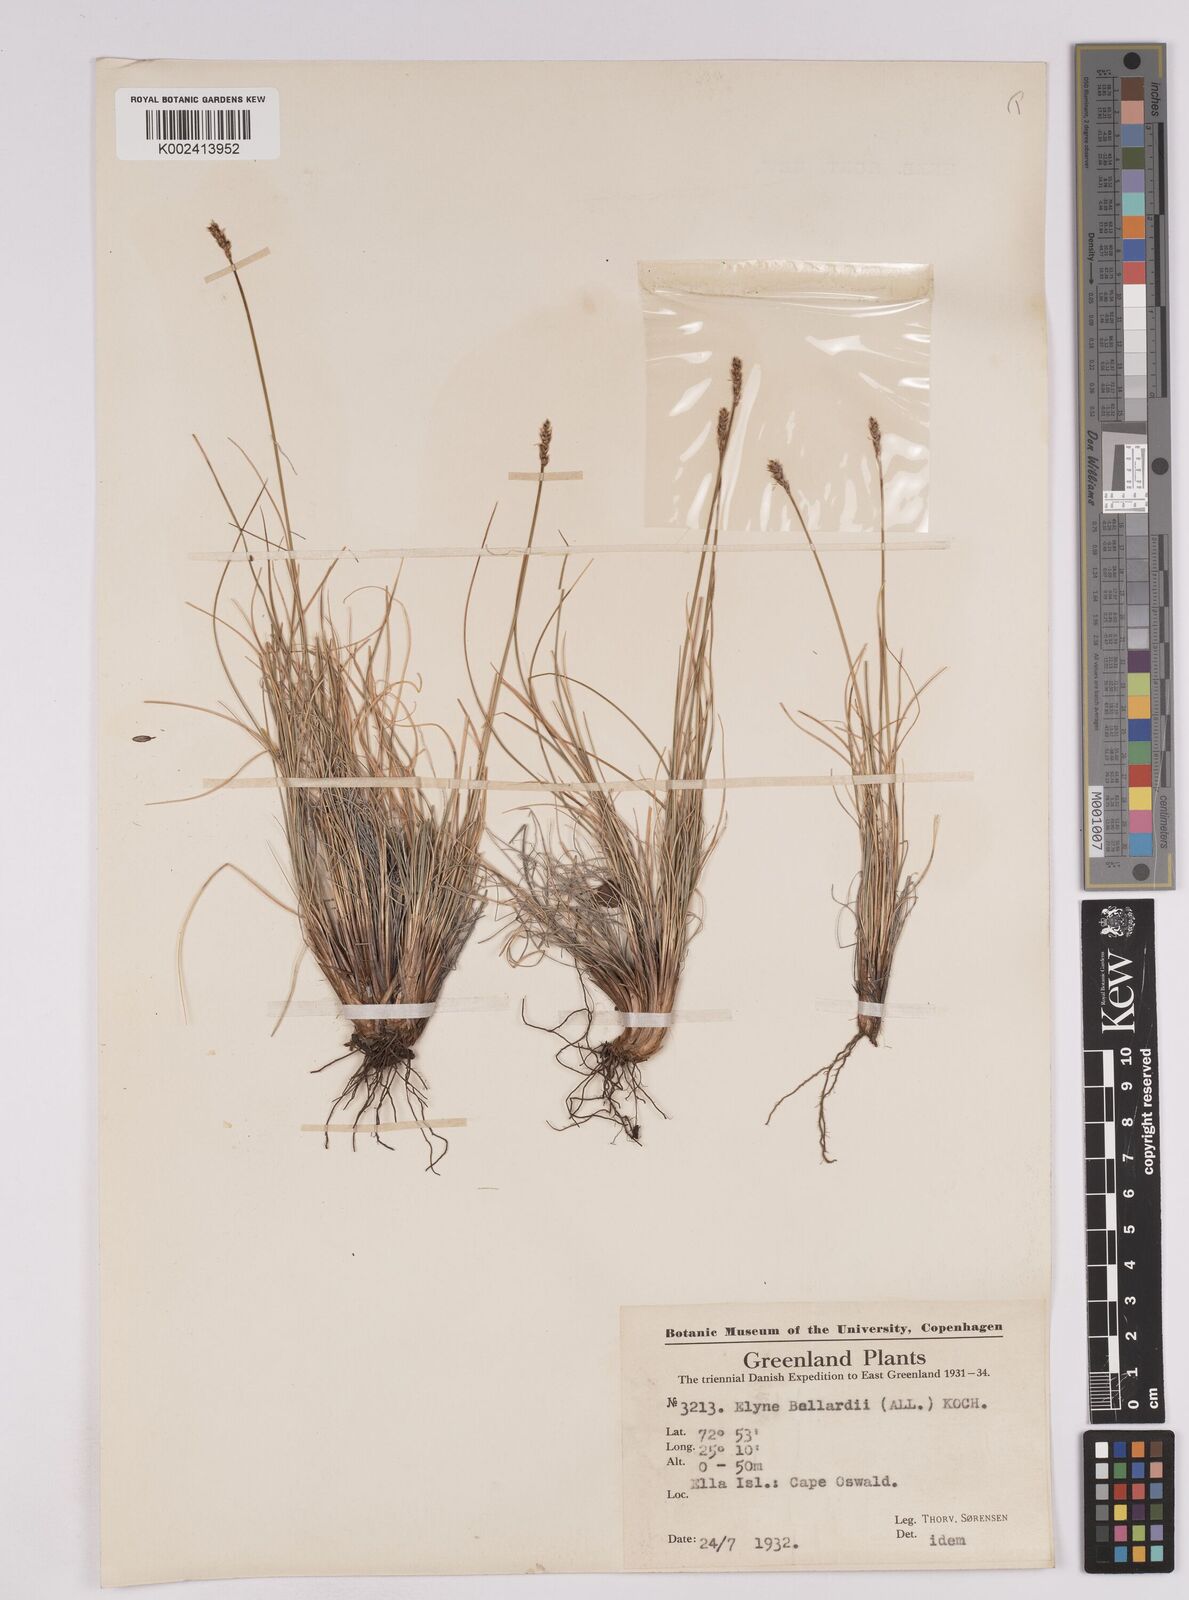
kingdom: Plantae
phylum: Tracheophyta
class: Liliopsida
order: Poales
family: Cyperaceae
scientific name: Cyperaceae
